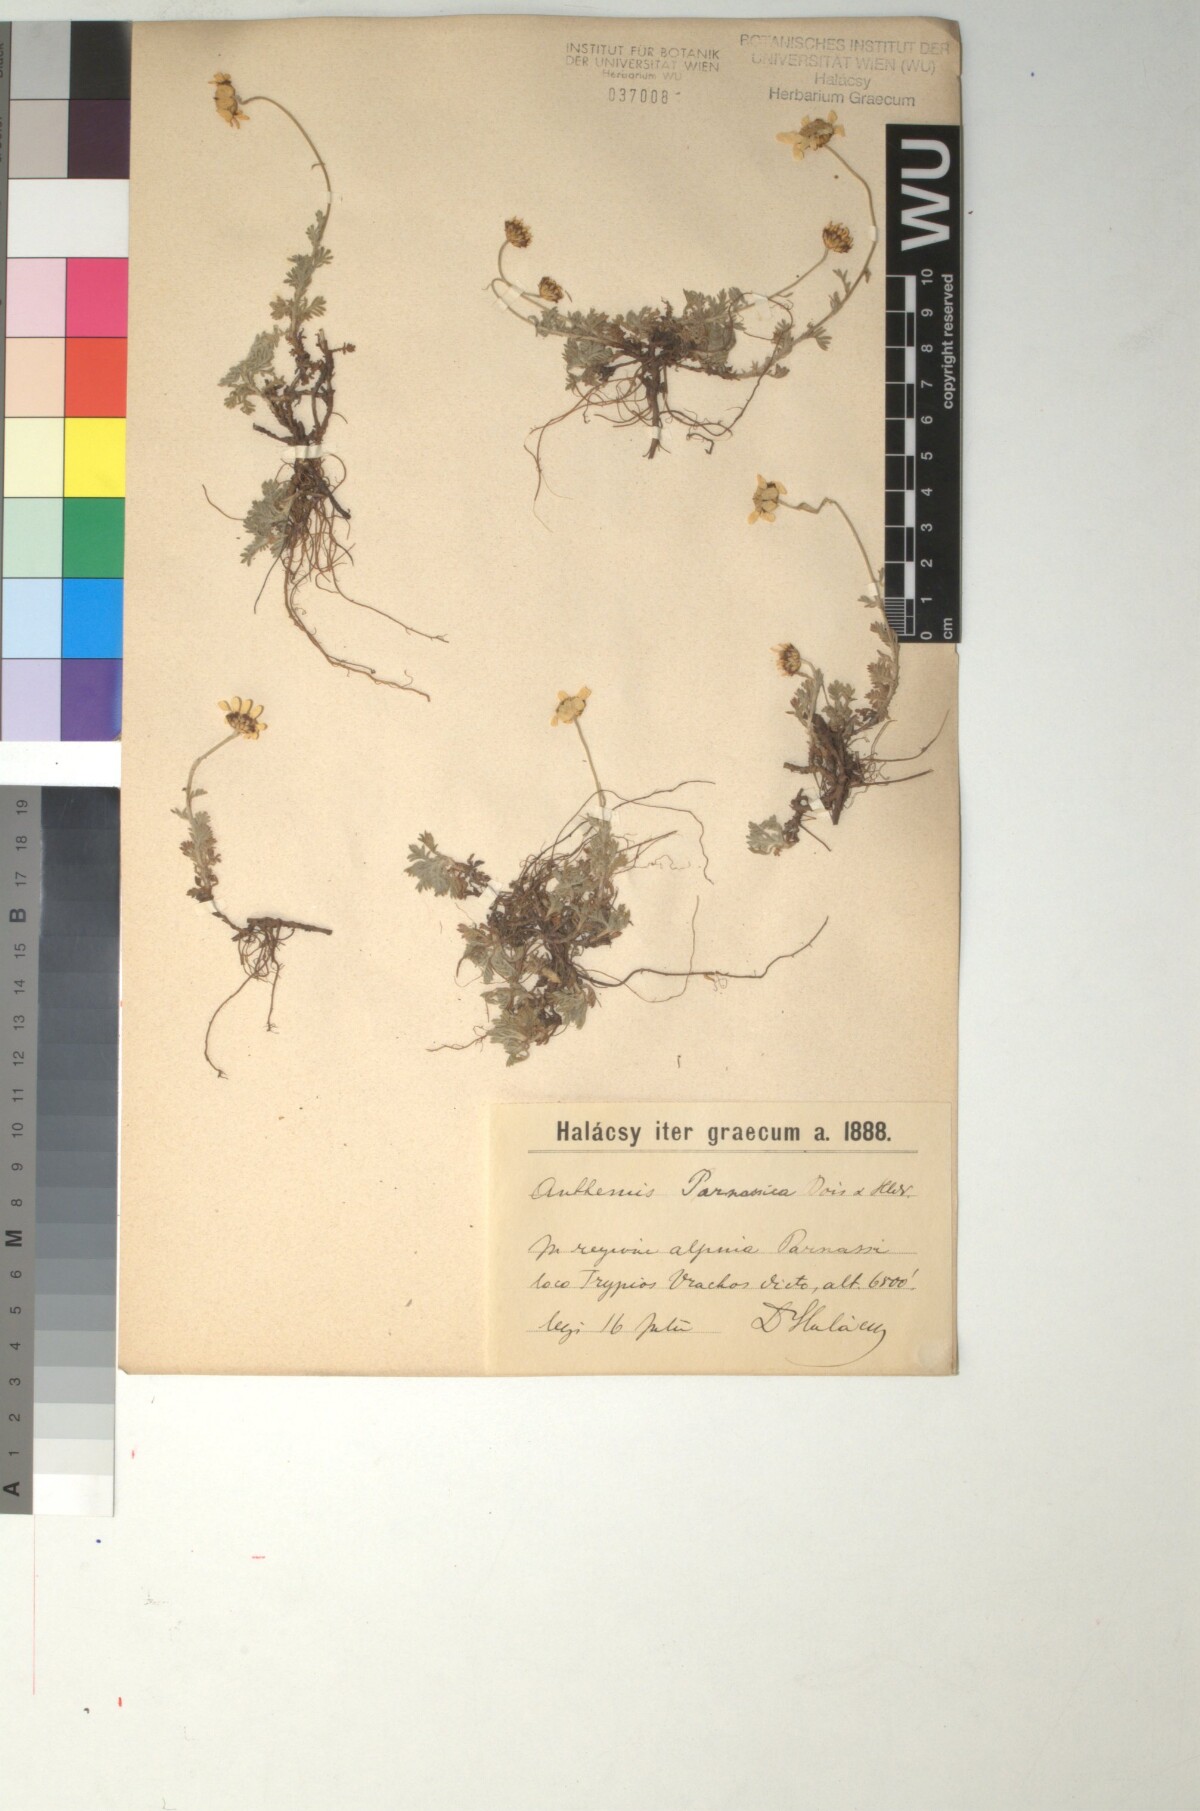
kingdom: Plantae
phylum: Tracheophyta
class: Magnoliopsida
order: Asterales
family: Asteraceae
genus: Cota
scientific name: Cota tinctoria
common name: Golden chamomile
